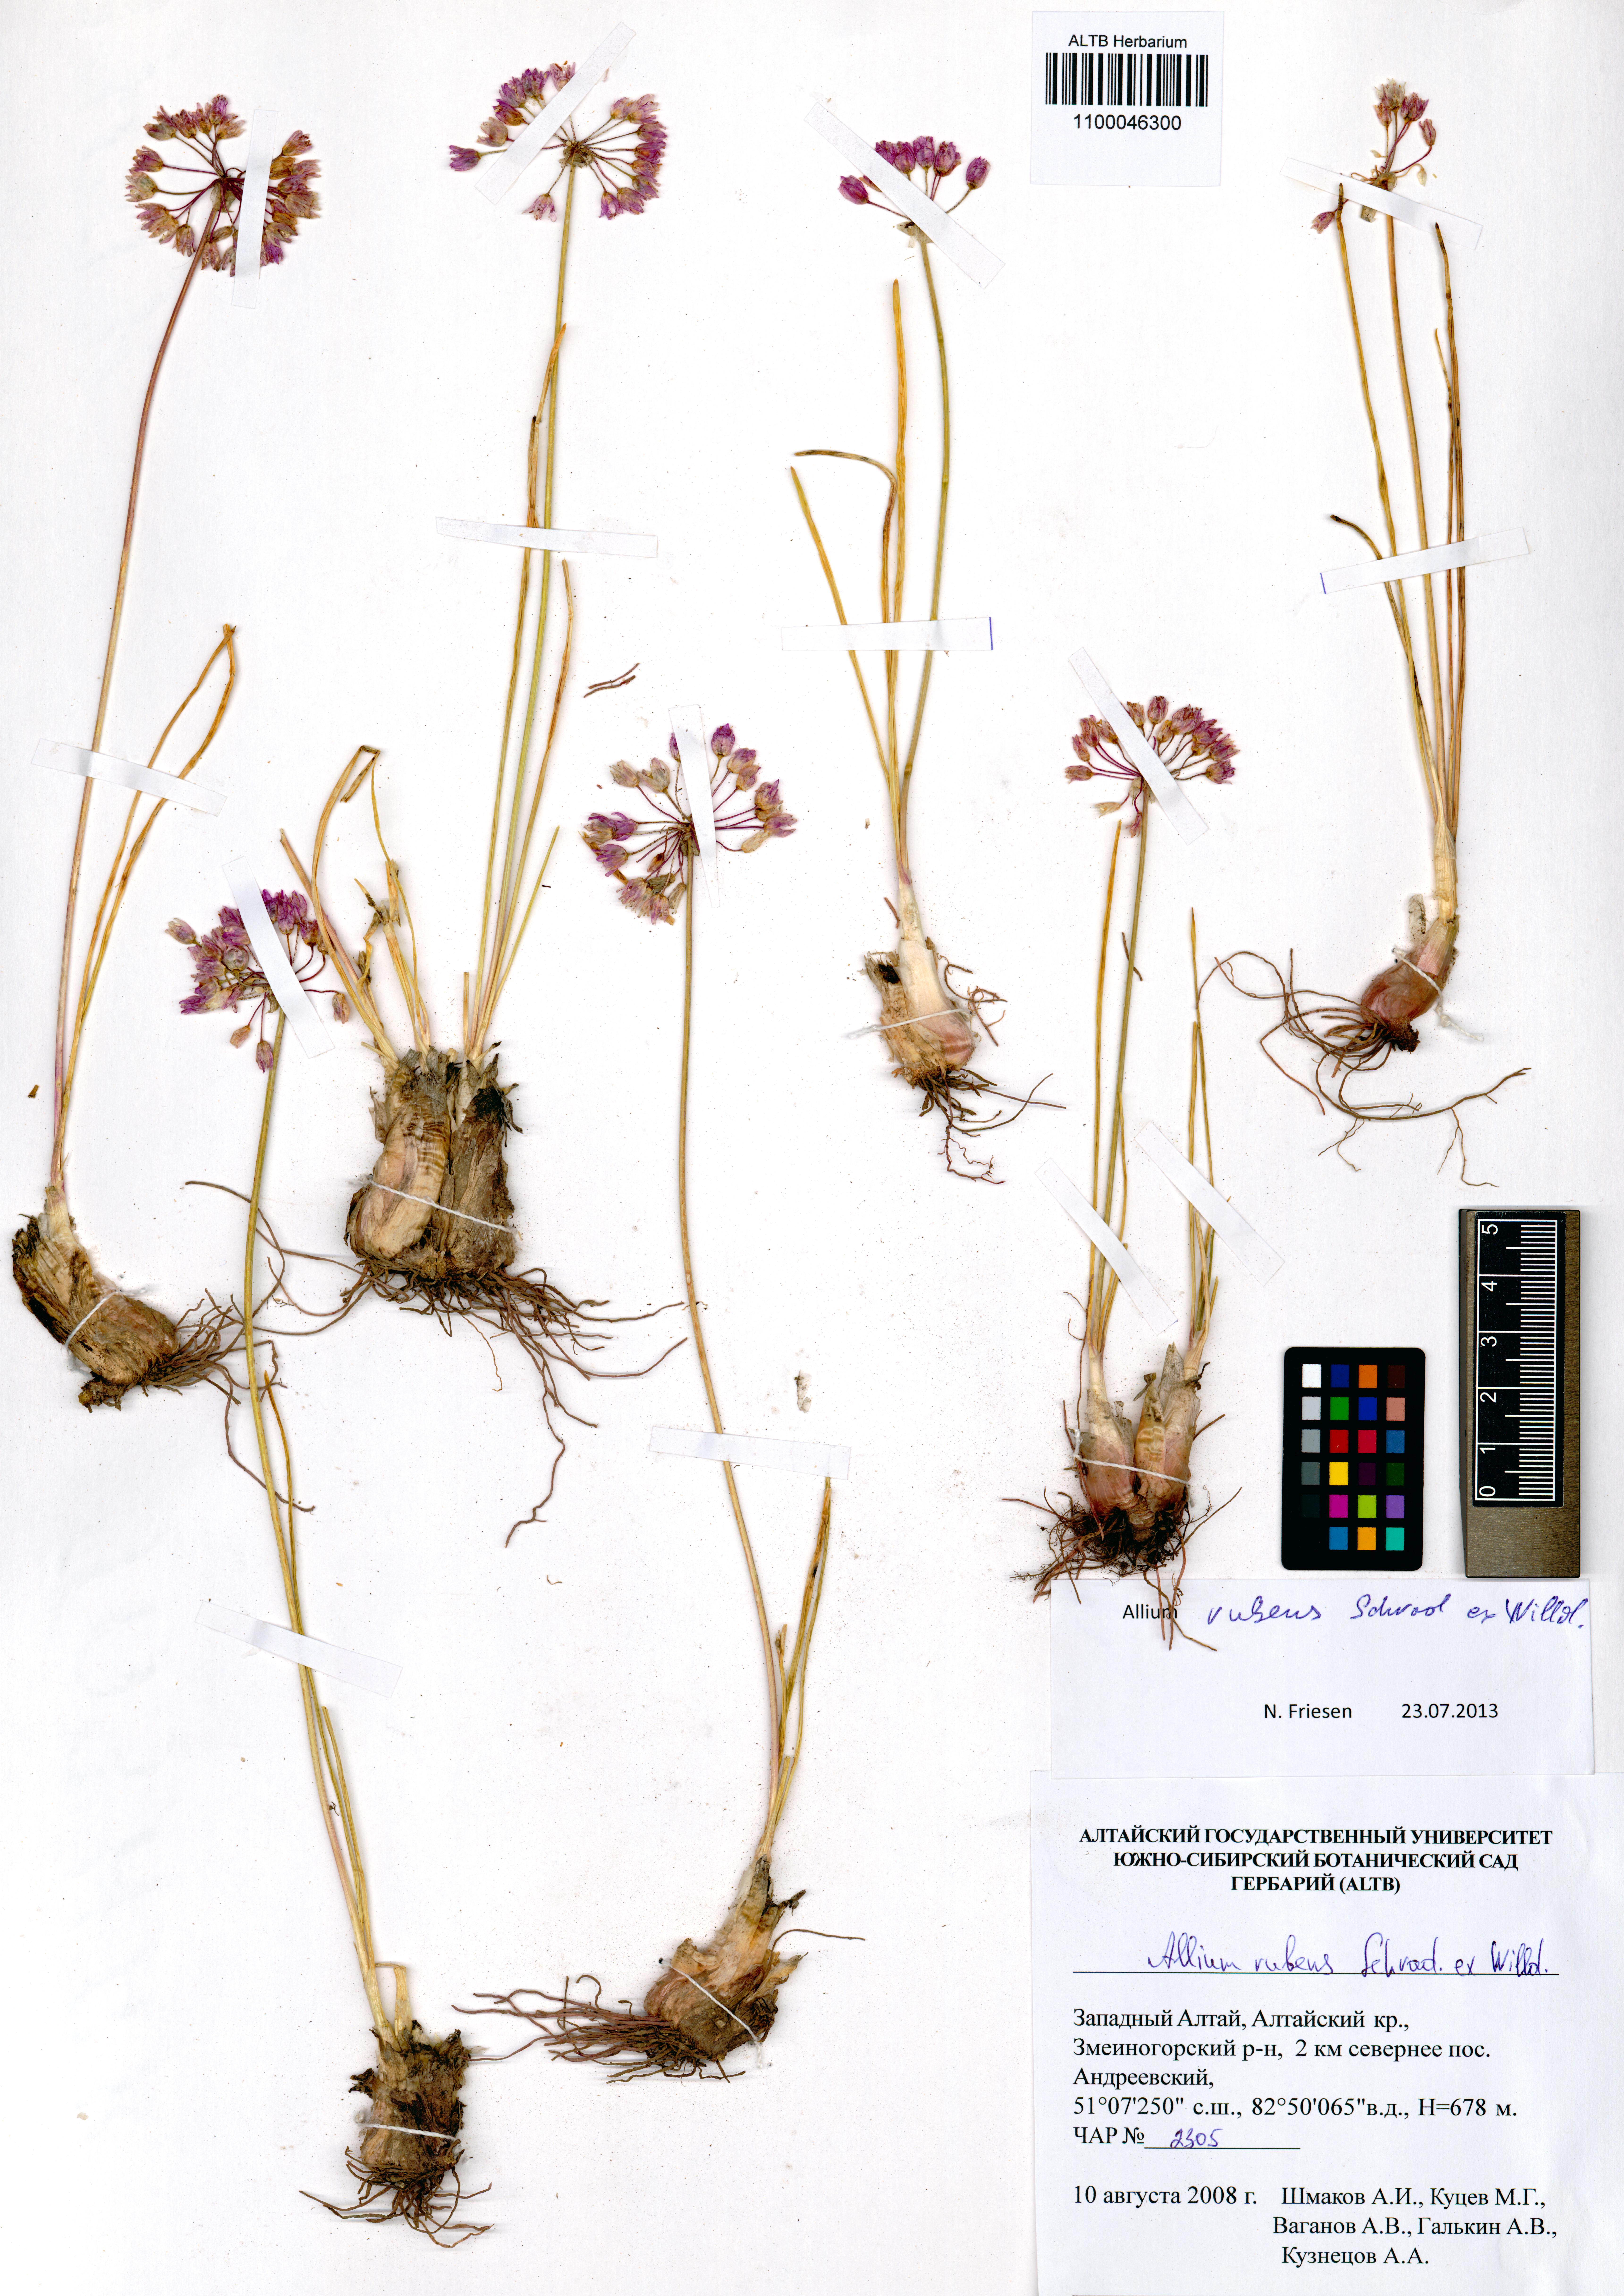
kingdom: Plantae
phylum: Tracheophyta
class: Liliopsida
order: Asparagales
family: Amaryllidaceae
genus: Allium
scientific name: Allium rubens
